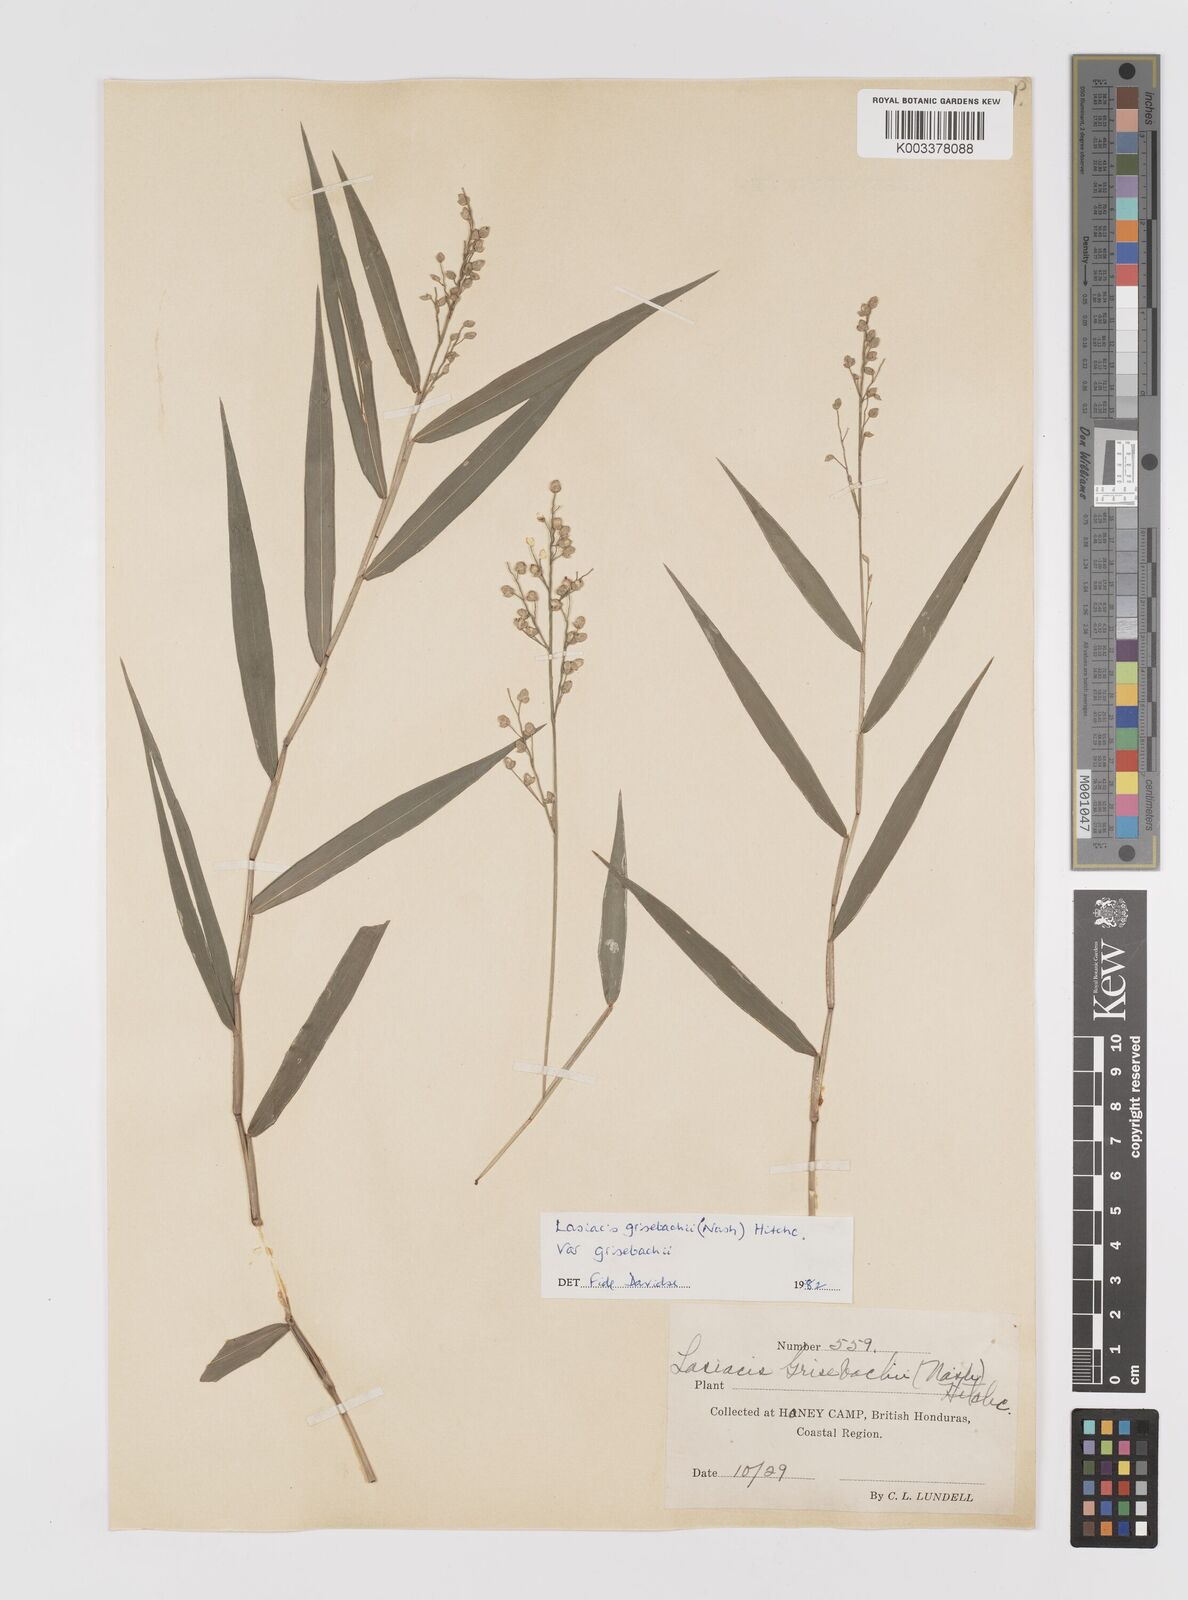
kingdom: Plantae
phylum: Tracheophyta
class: Liliopsida
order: Poales
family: Poaceae
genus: Lasiacis
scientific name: Lasiacis grisebachii
